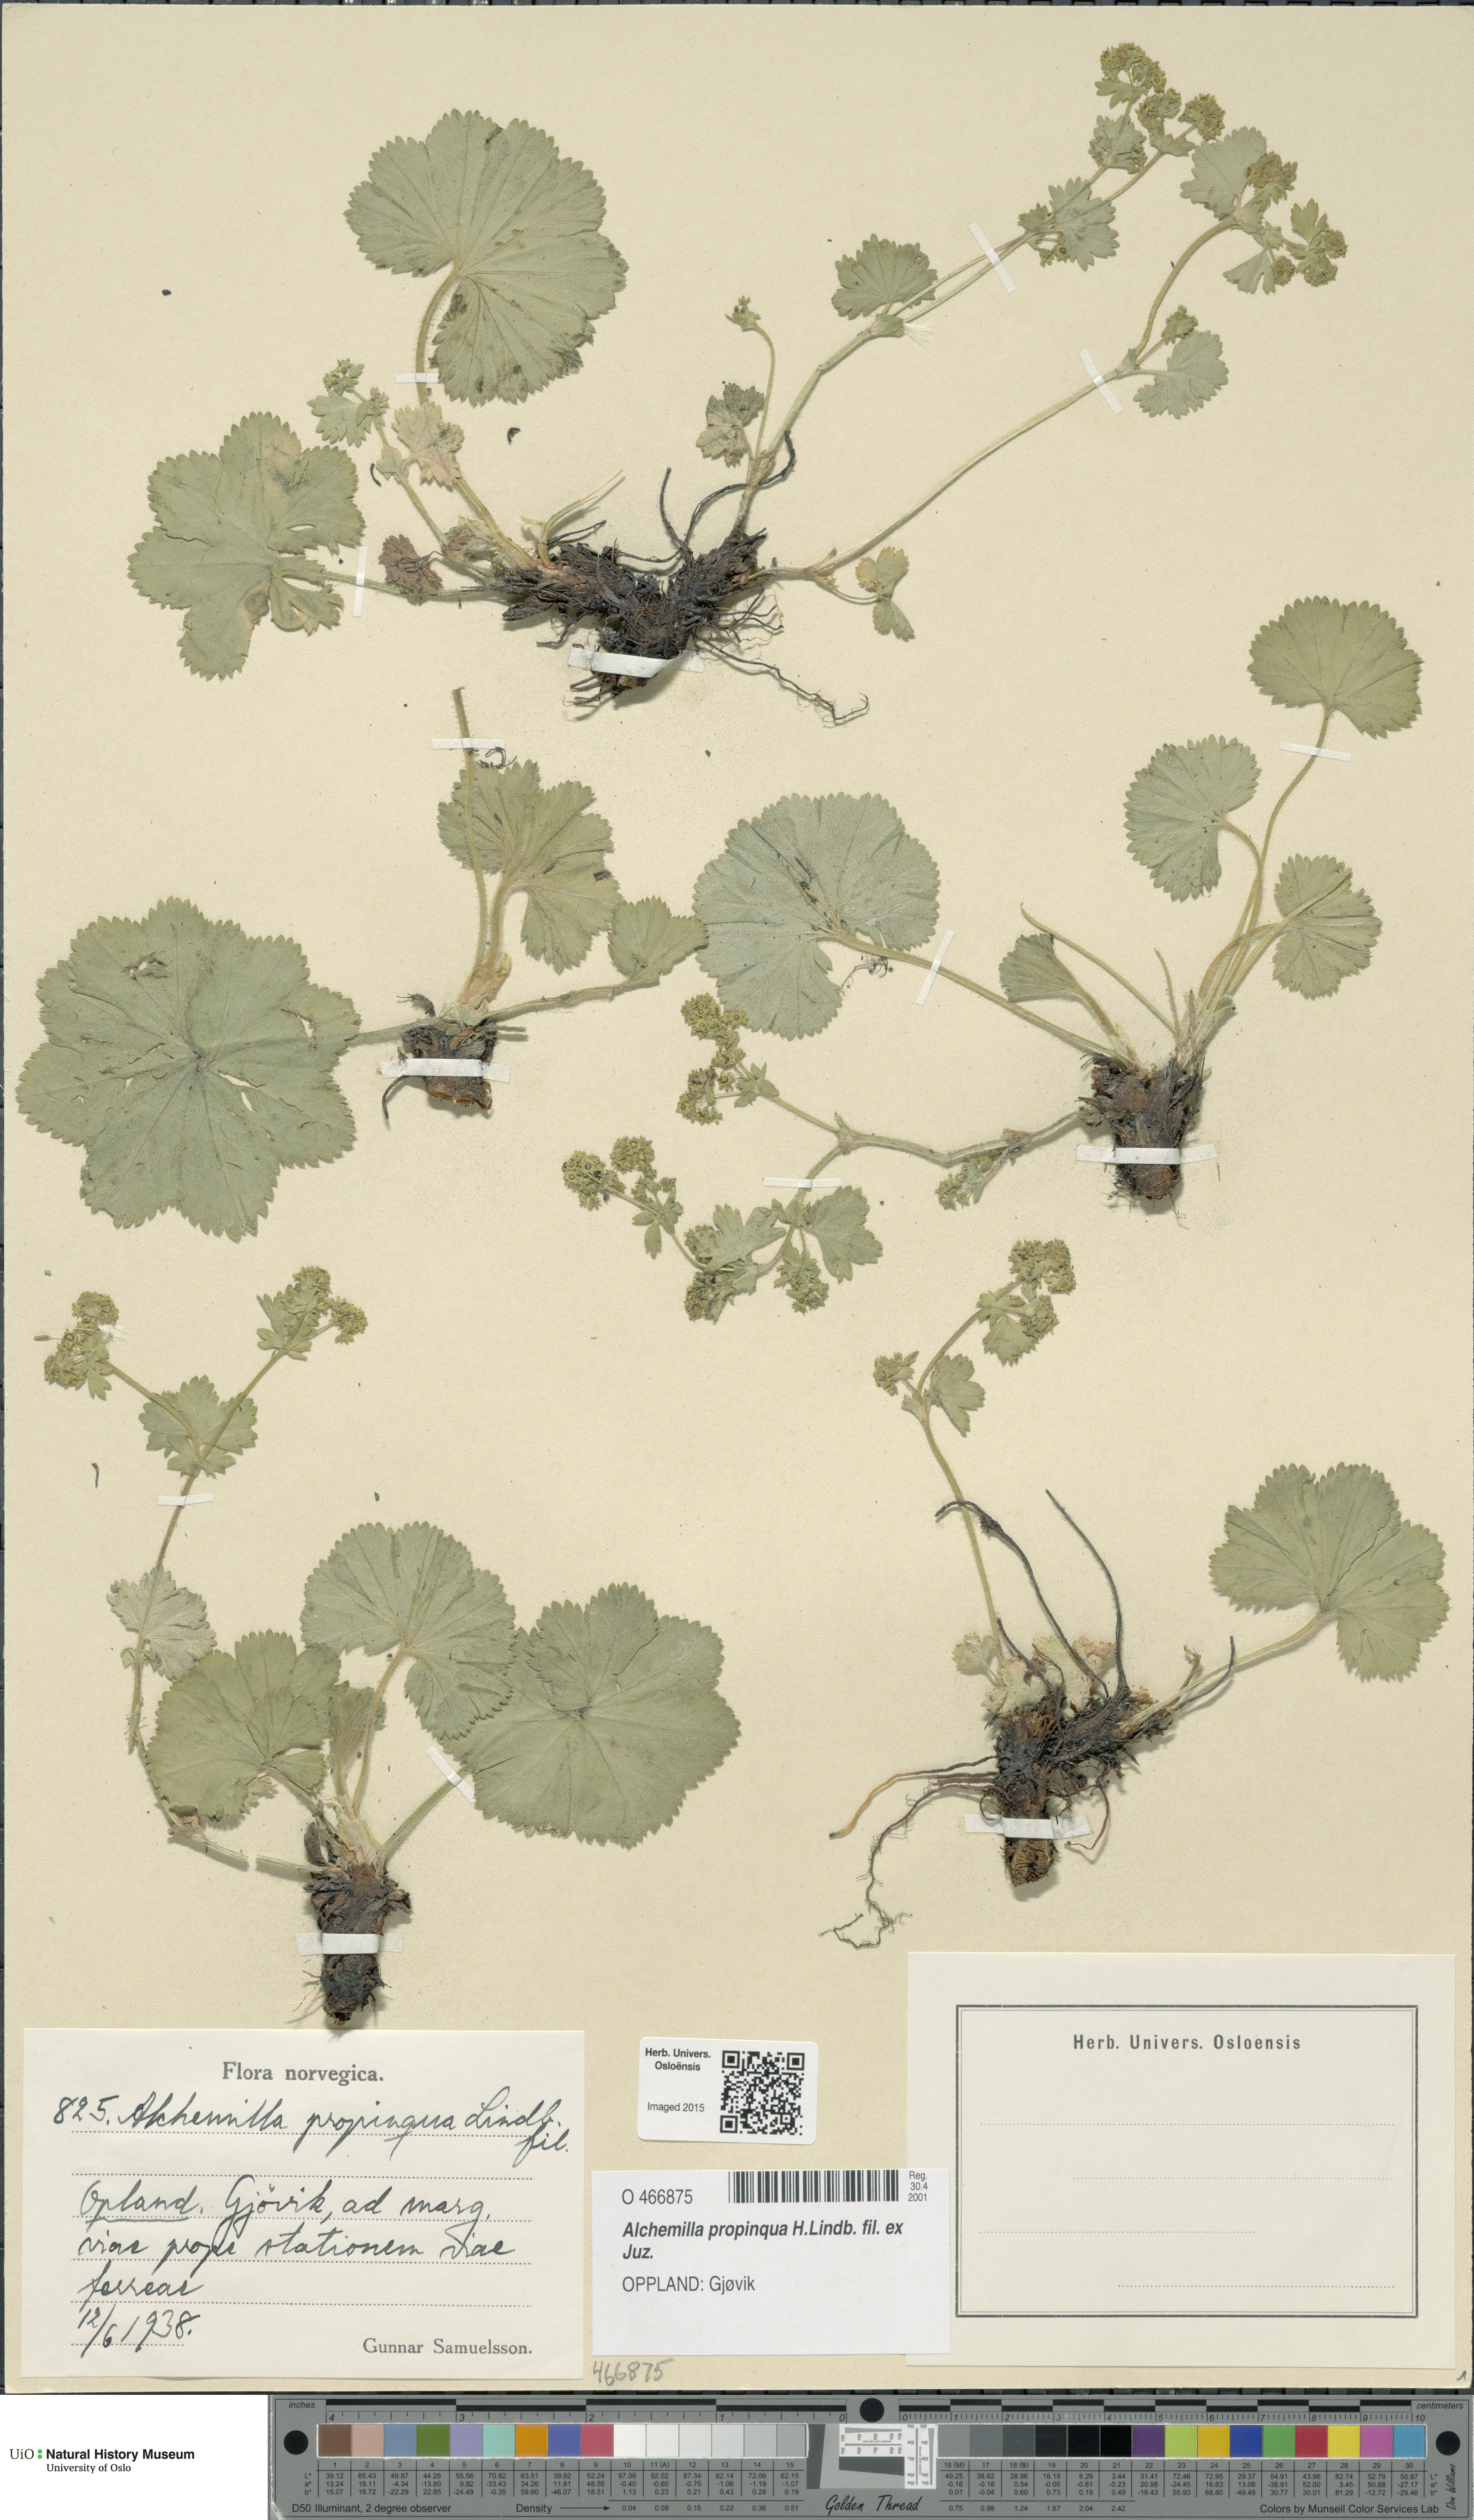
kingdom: Plantae
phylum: Tracheophyta
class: Magnoliopsida
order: Rosales
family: Rosaceae
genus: Alchemilla
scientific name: Alchemilla propinqua
